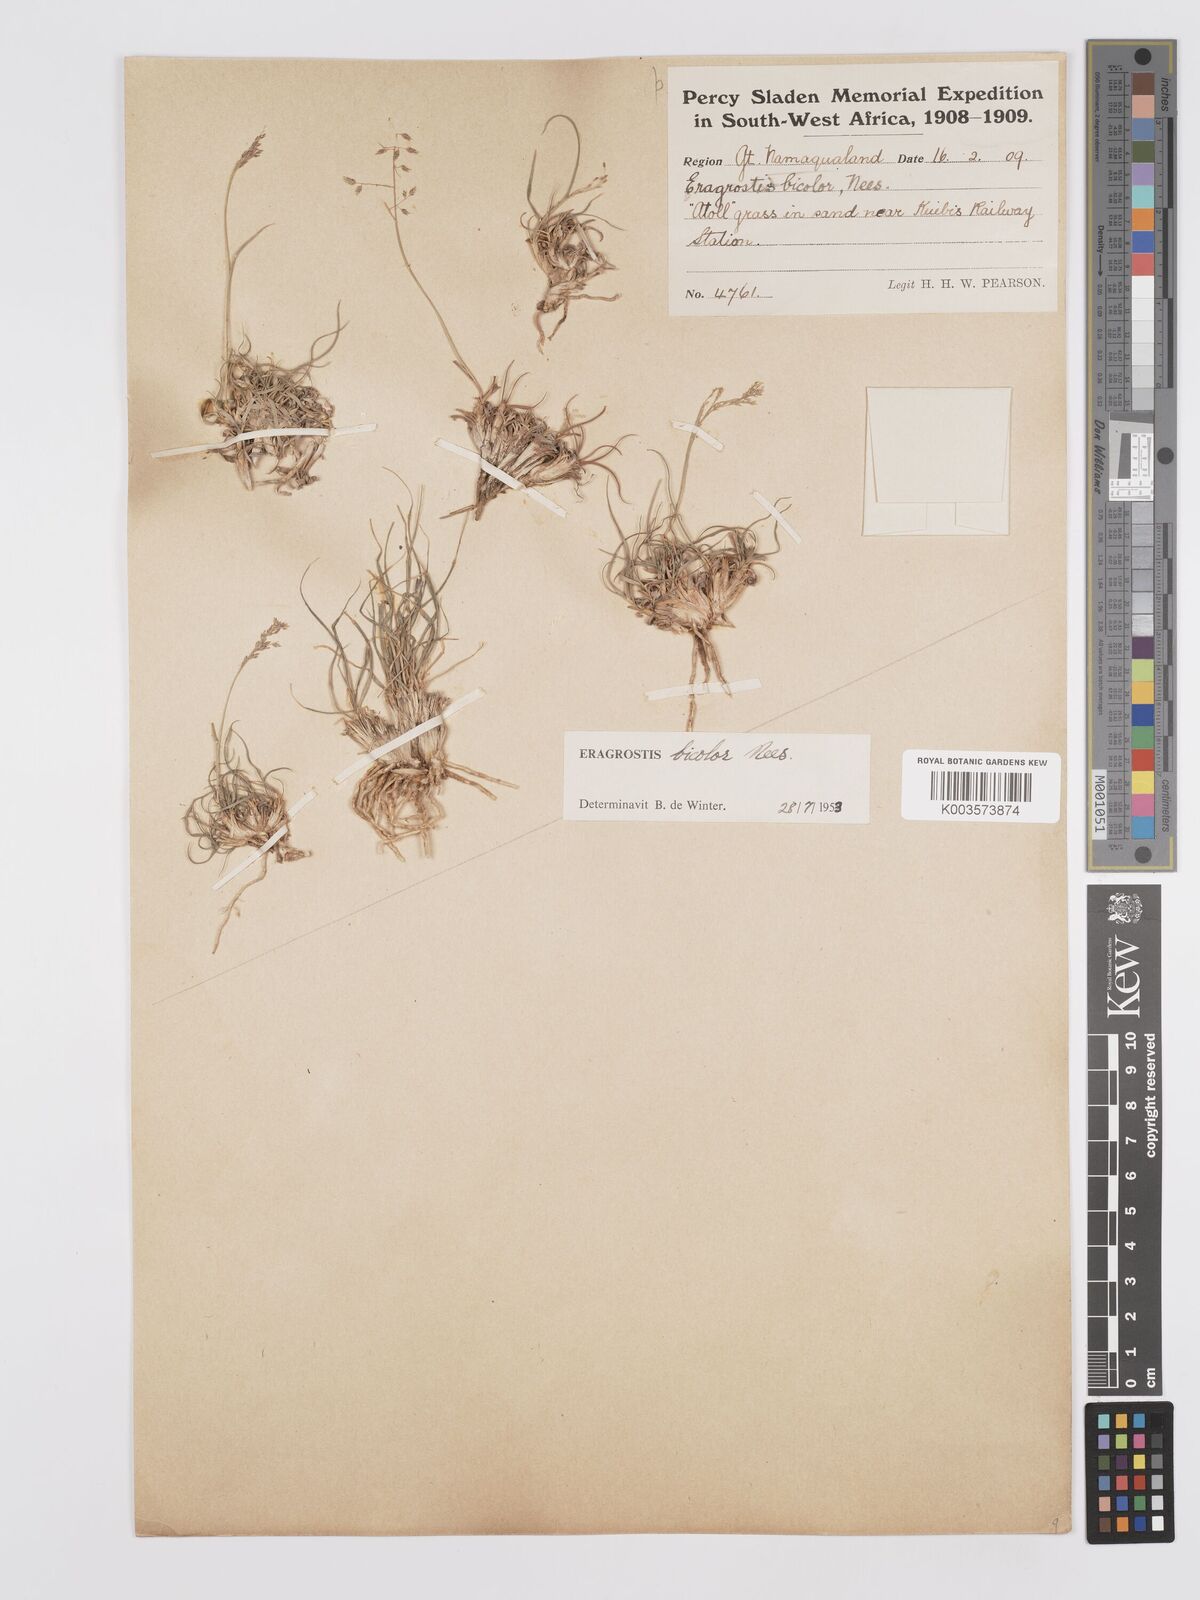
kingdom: Plantae
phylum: Tracheophyta
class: Liliopsida
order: Poales
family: Poaceae
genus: Eragrostis
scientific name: Eragrostis
